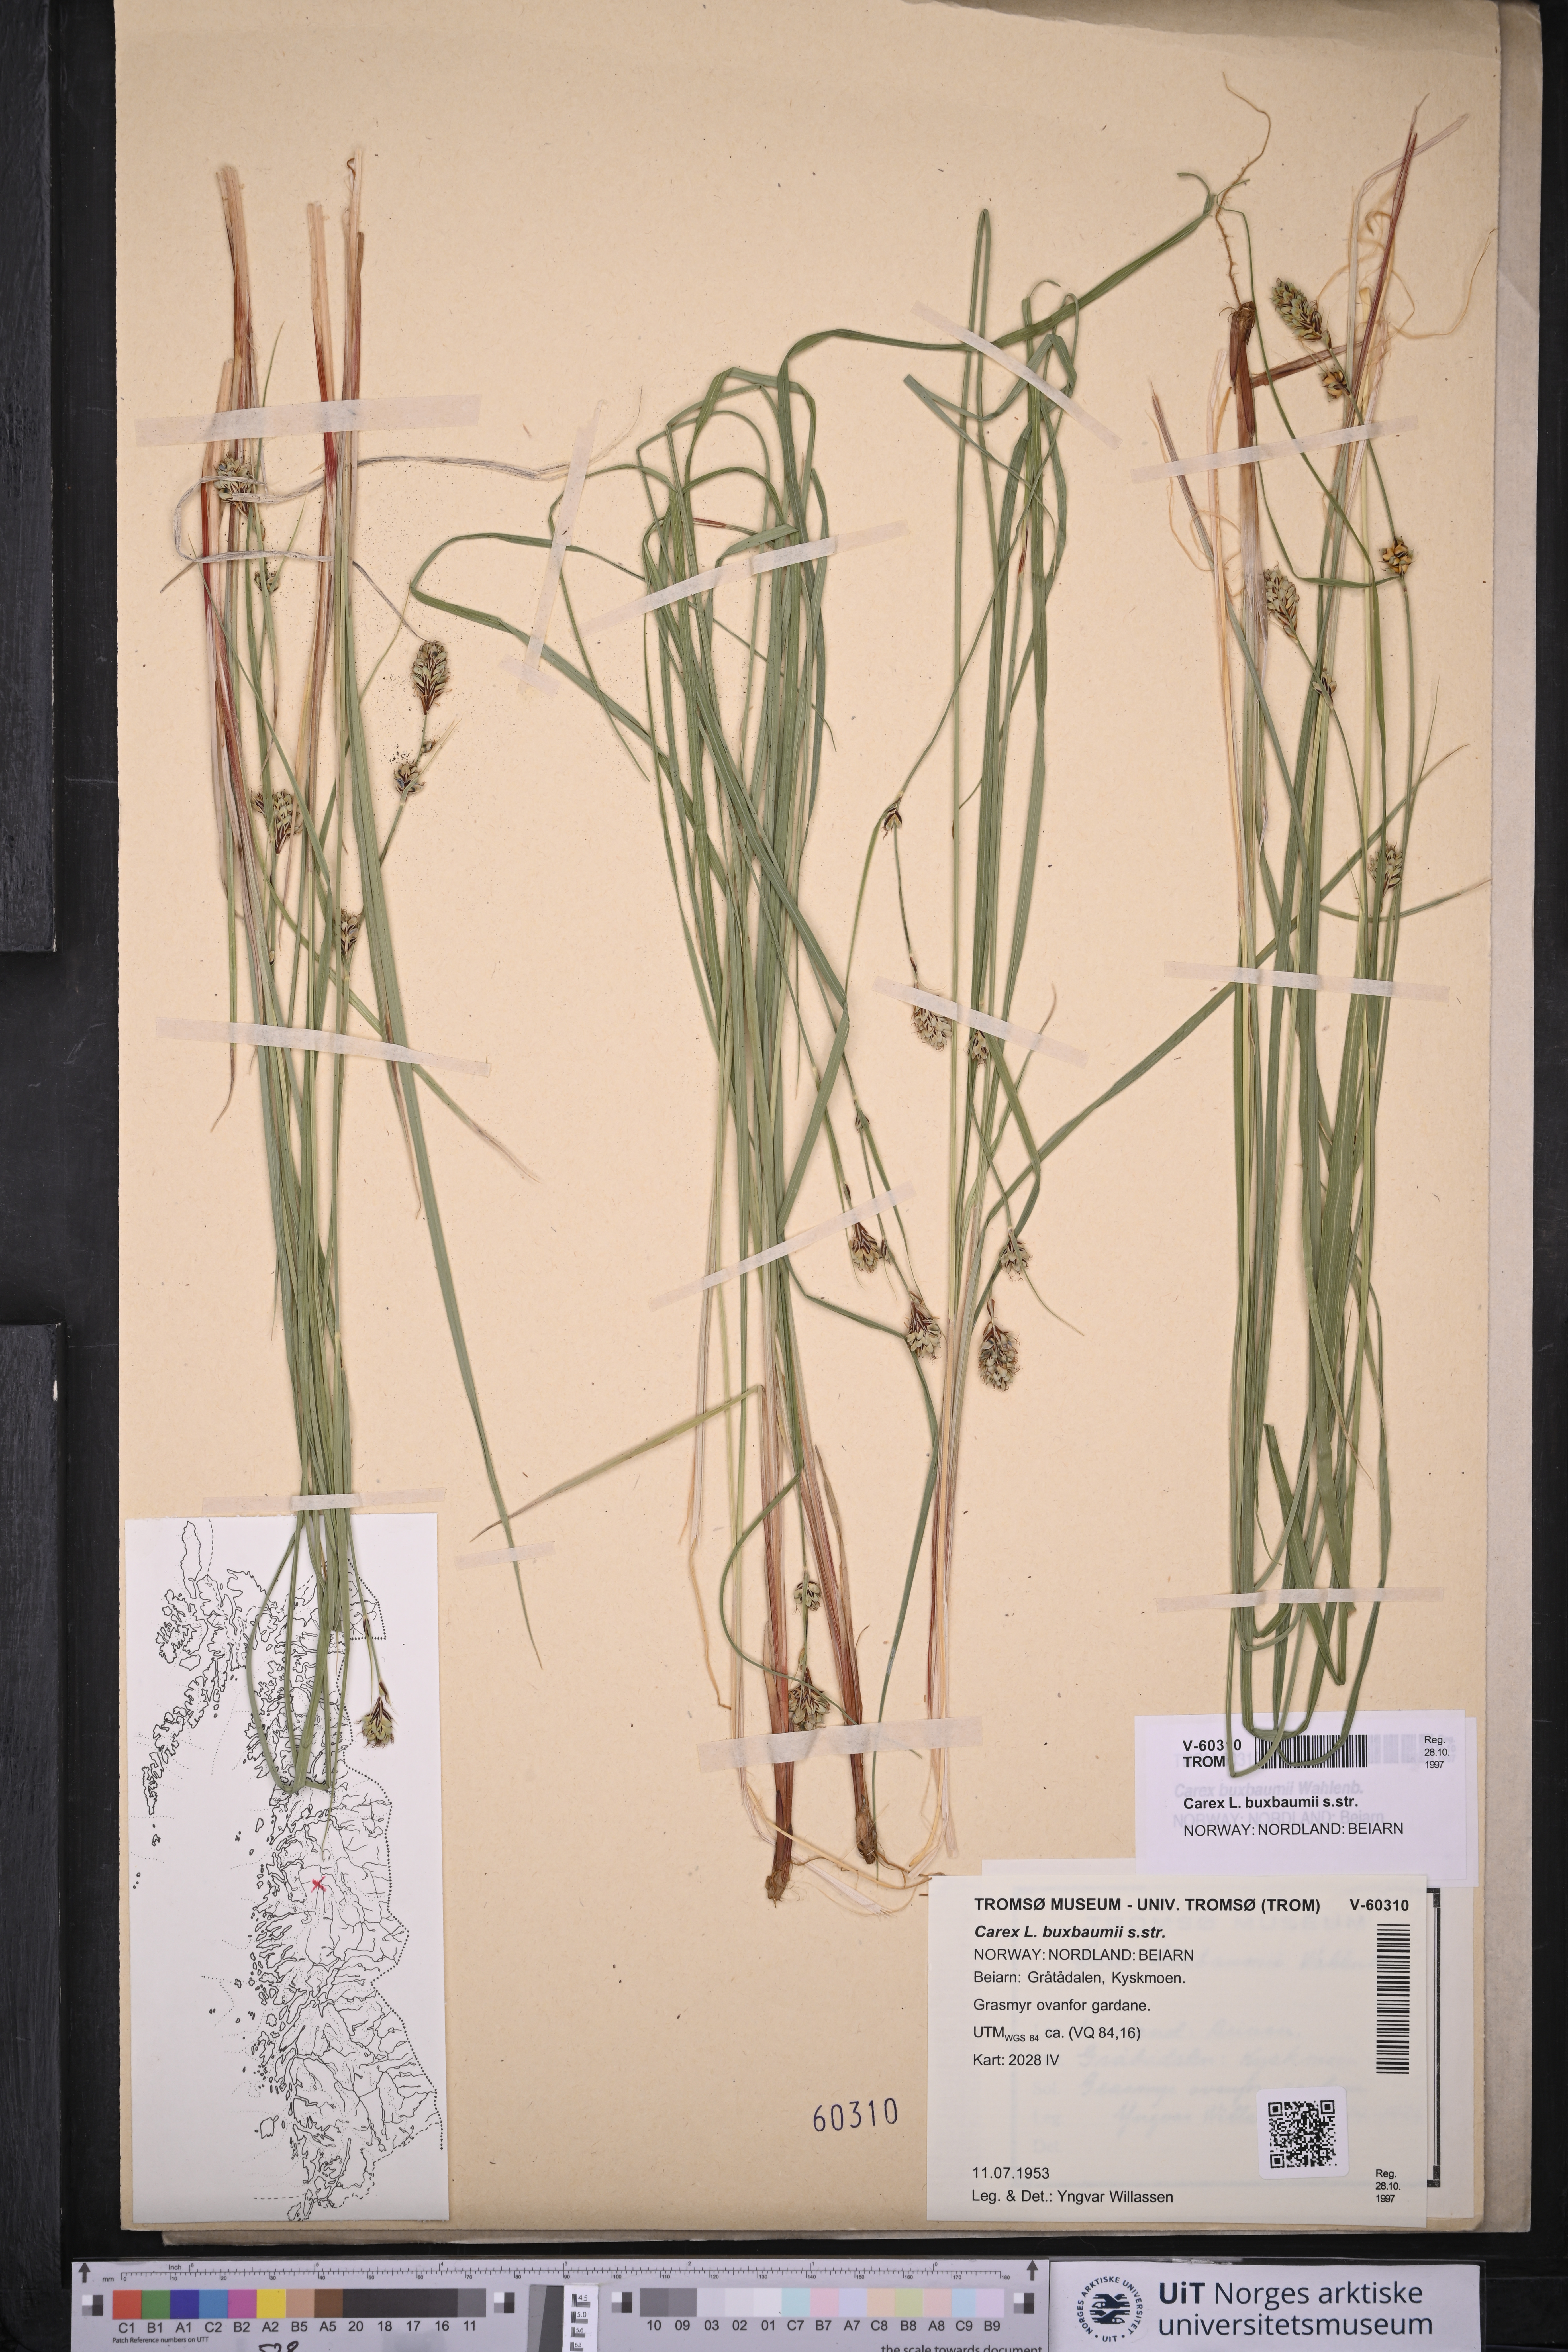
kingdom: Plantae
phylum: Tracheophyta
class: Liliopsida
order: Poales
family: Cyperaceae
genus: Carex
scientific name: Carex buxbaumii
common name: Club sedge
